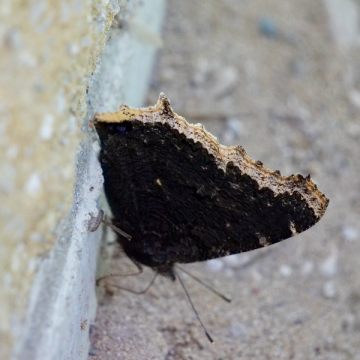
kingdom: Animalia
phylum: Arthropoda
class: Insecta
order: Lepidoptera
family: Nymphalidae
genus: Nymphalis
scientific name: Nymphalis antiopa
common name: Mourning Cloak
